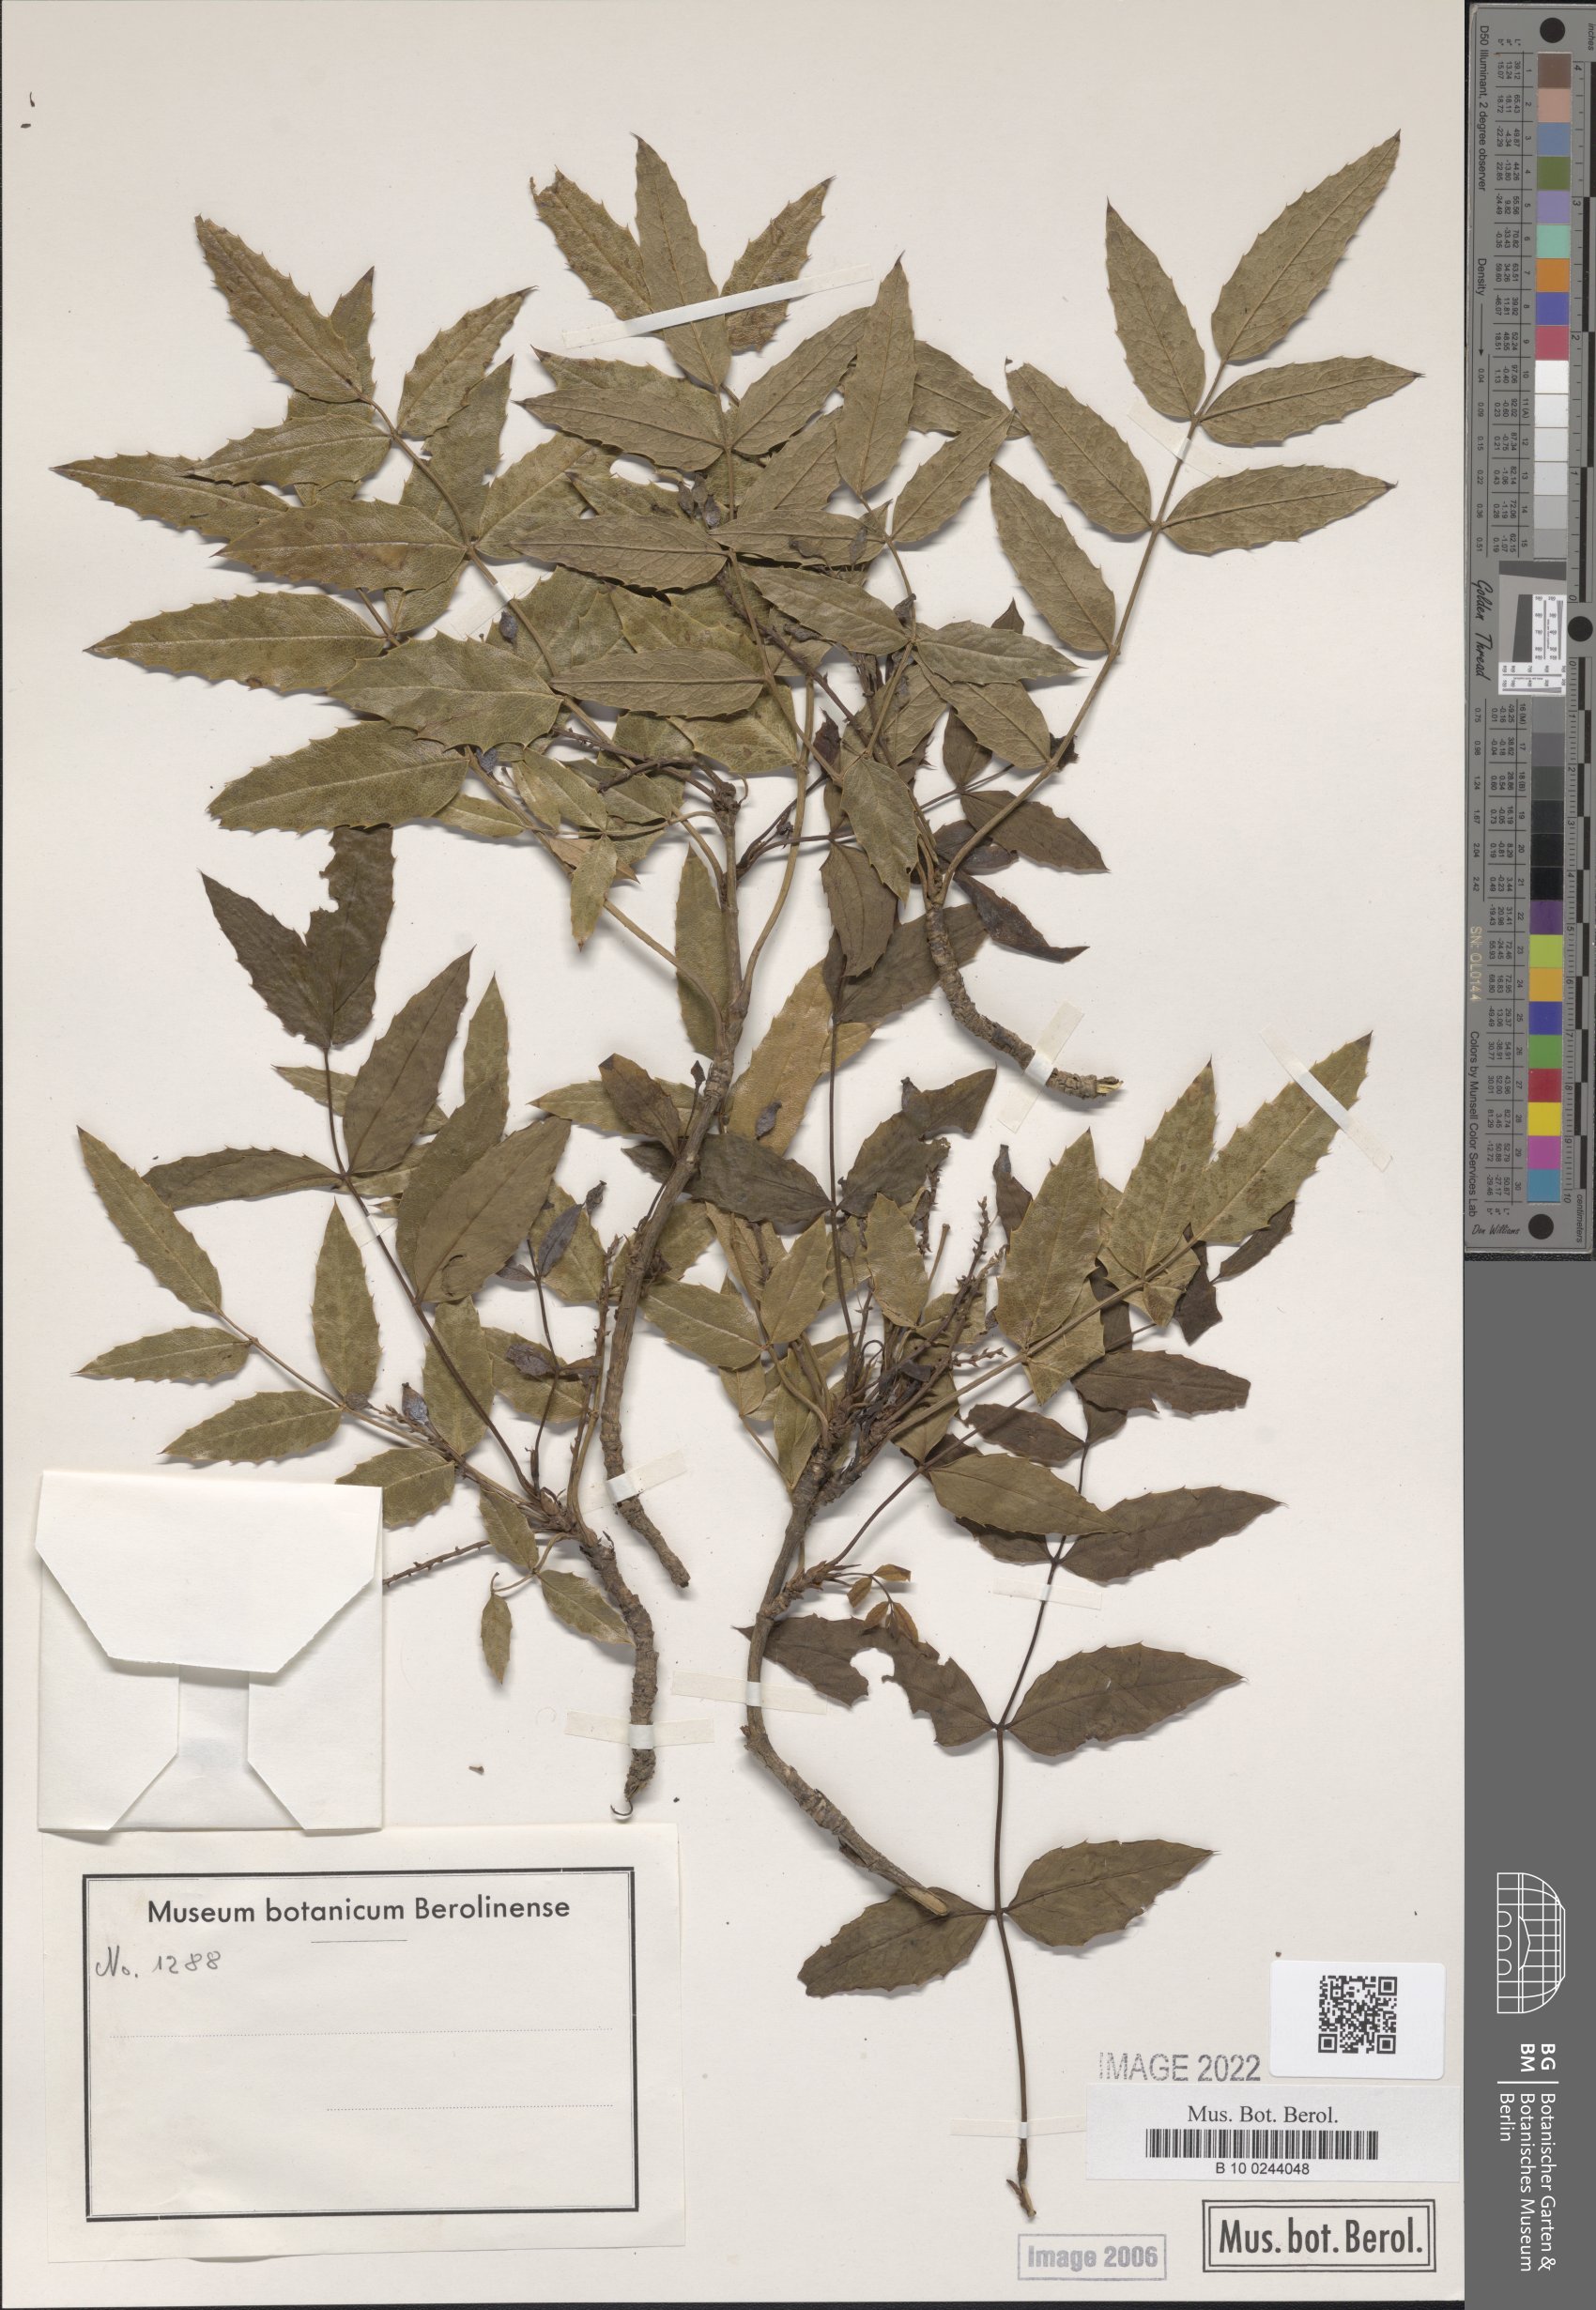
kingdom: Plantae
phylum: Tracheophyta
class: Magnoliopsida
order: Ranunculales
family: Berberidaceae
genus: Mahonia
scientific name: Mahonia incerta
